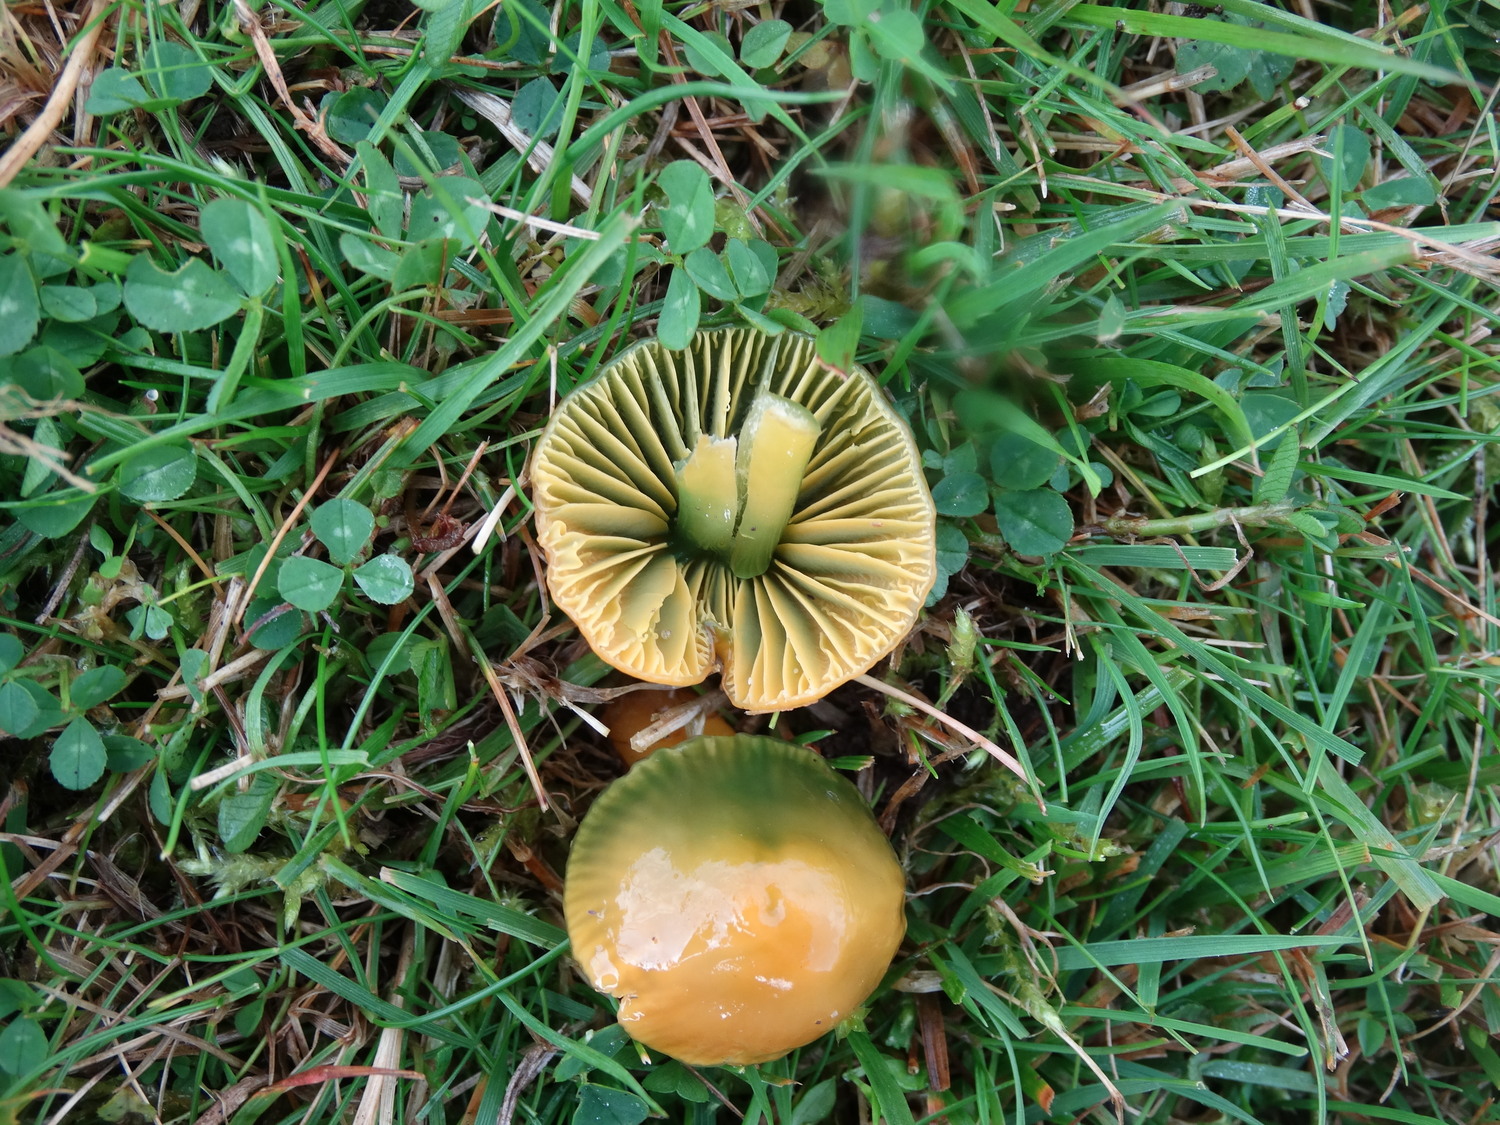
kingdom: Fungi
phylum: Basidiomycota
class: Agaricomycetes
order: Agaricales
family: Hygrophoraceae
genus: Gliophorus
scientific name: Gliophorus psittacinus
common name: papegøje-vokshat
